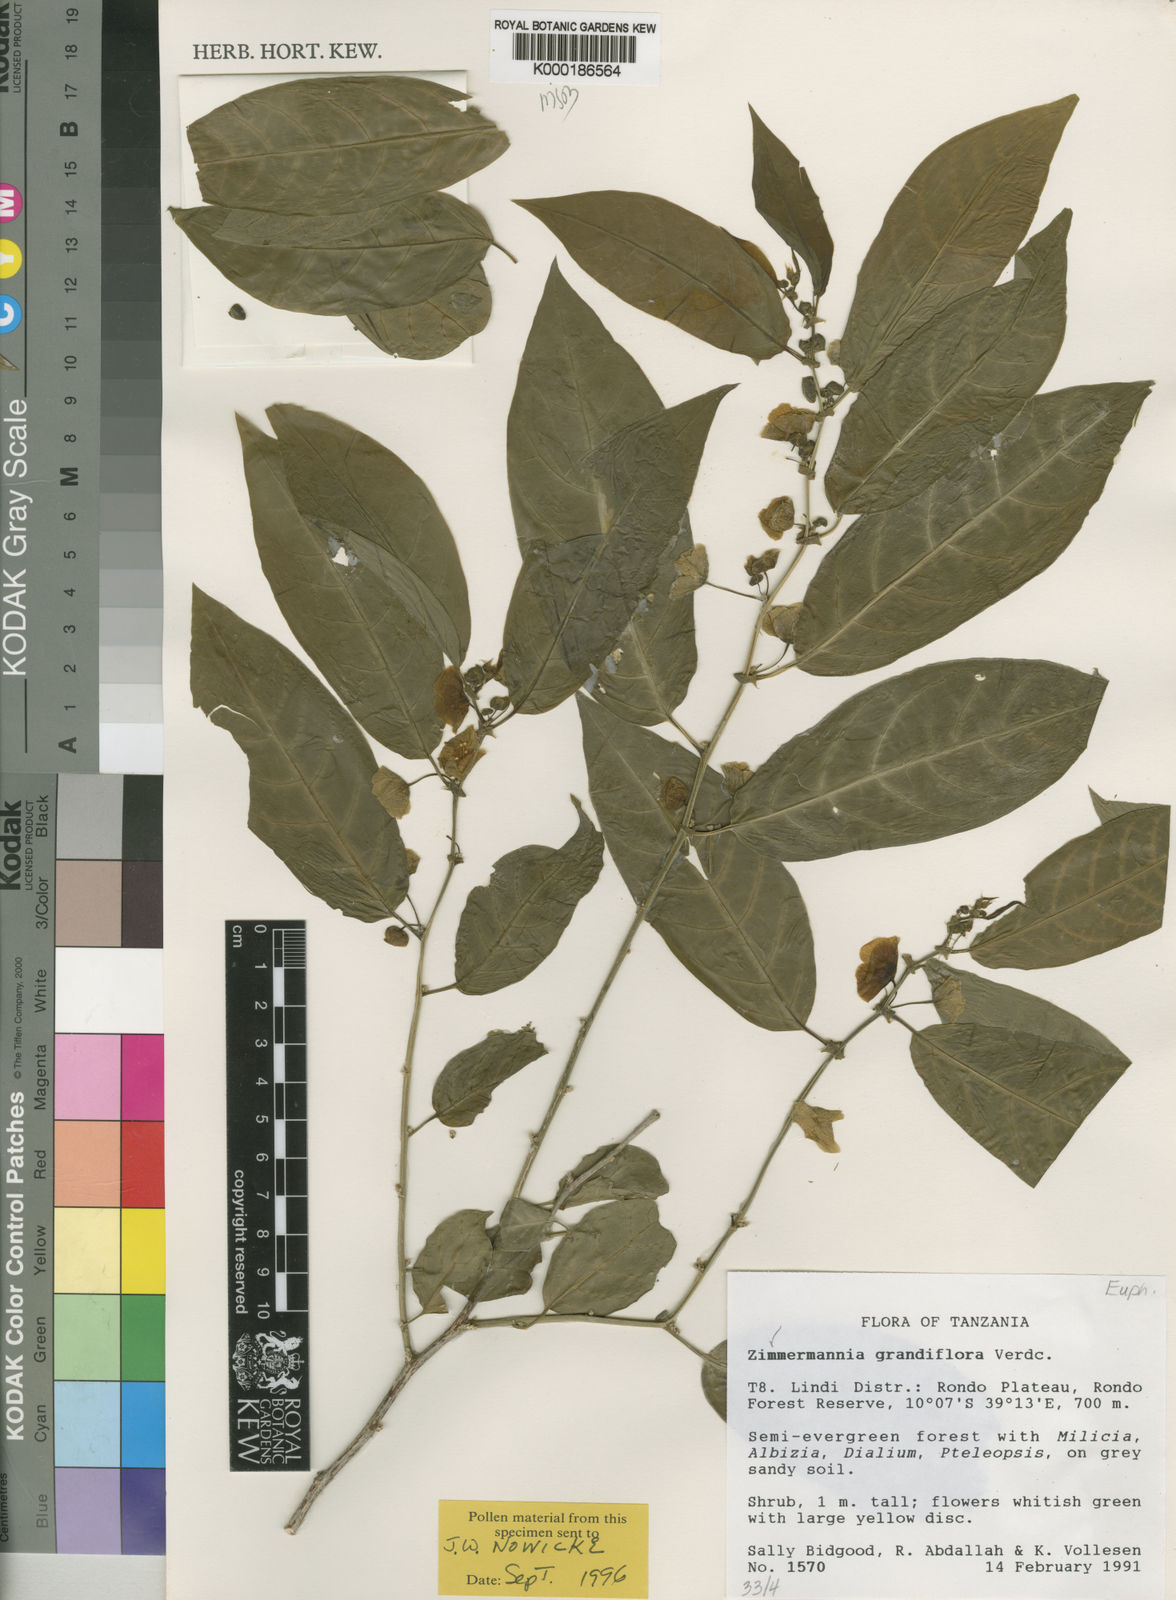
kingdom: Plantae
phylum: Tracheophyta
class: Magnoliopsida
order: Malpighiales
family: Phyllanthaceae
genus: Meineckia
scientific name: Meineckia grandiflora
